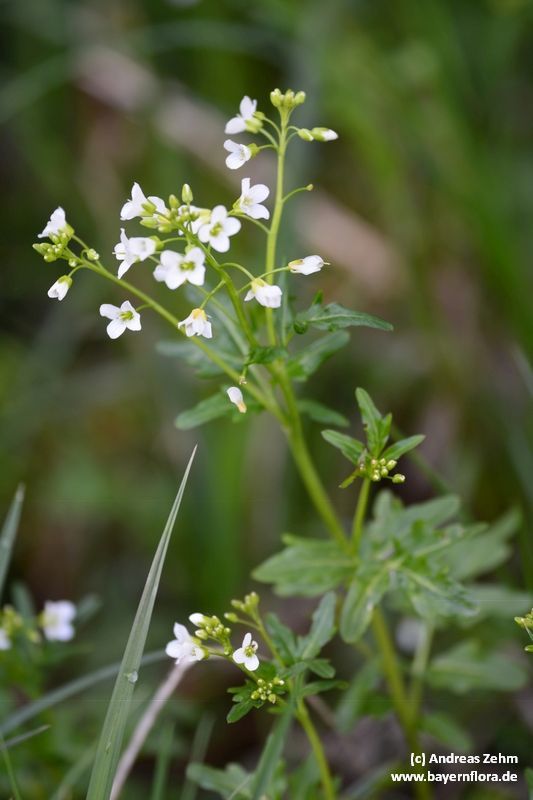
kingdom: Plantae
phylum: Tracheophyta
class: Magnoliopsida
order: Brassicales
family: Brassicaceae
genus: Cardamine
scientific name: Cardamine amara
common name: Large bitter-cress
